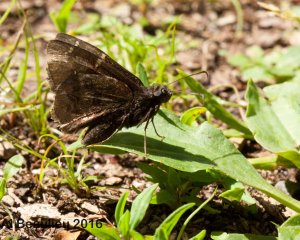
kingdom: Animalia
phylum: Arthropoda
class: Insecta
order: Lepidoptera
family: Hesperiidae
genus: Autochton
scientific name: Autochton
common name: Northern Cloudywing
